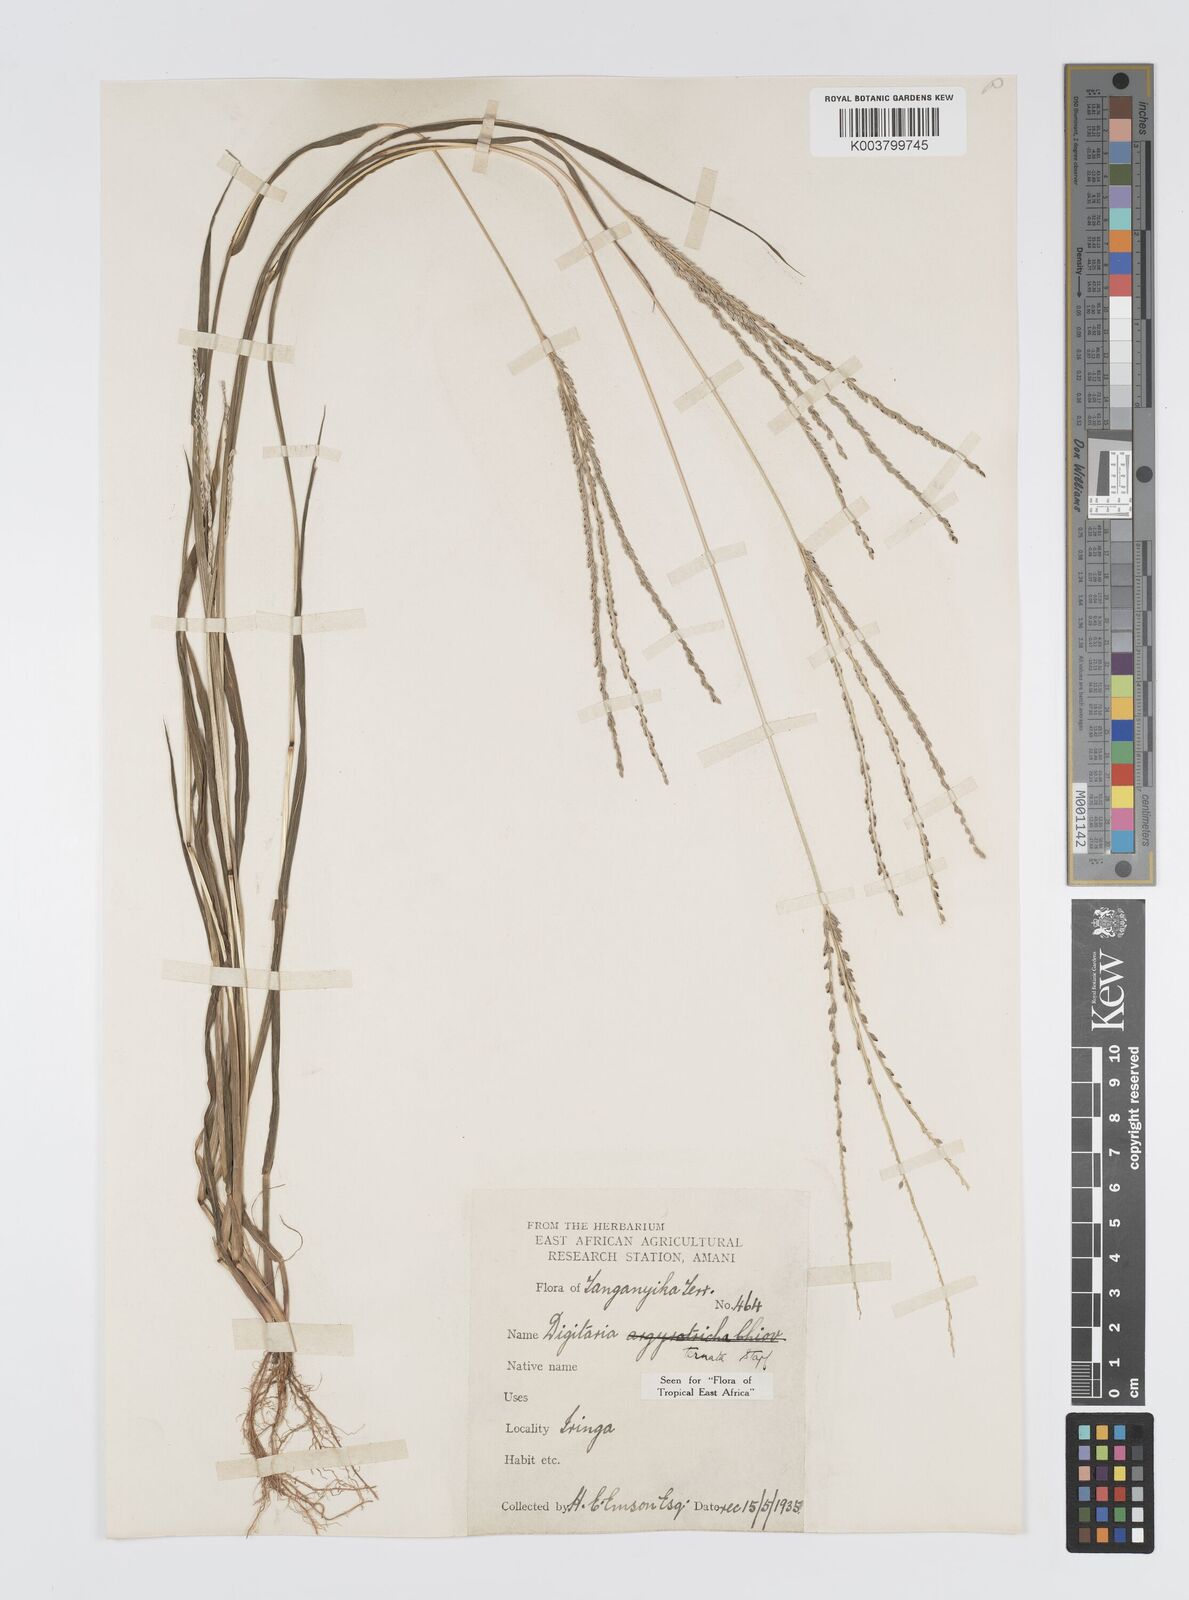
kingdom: Plantae
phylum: Tracheophyta
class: Liliopsida
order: Poales
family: Poaceae
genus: Digitaria
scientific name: Digitaria ternata
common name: Blackseed crabgrass
